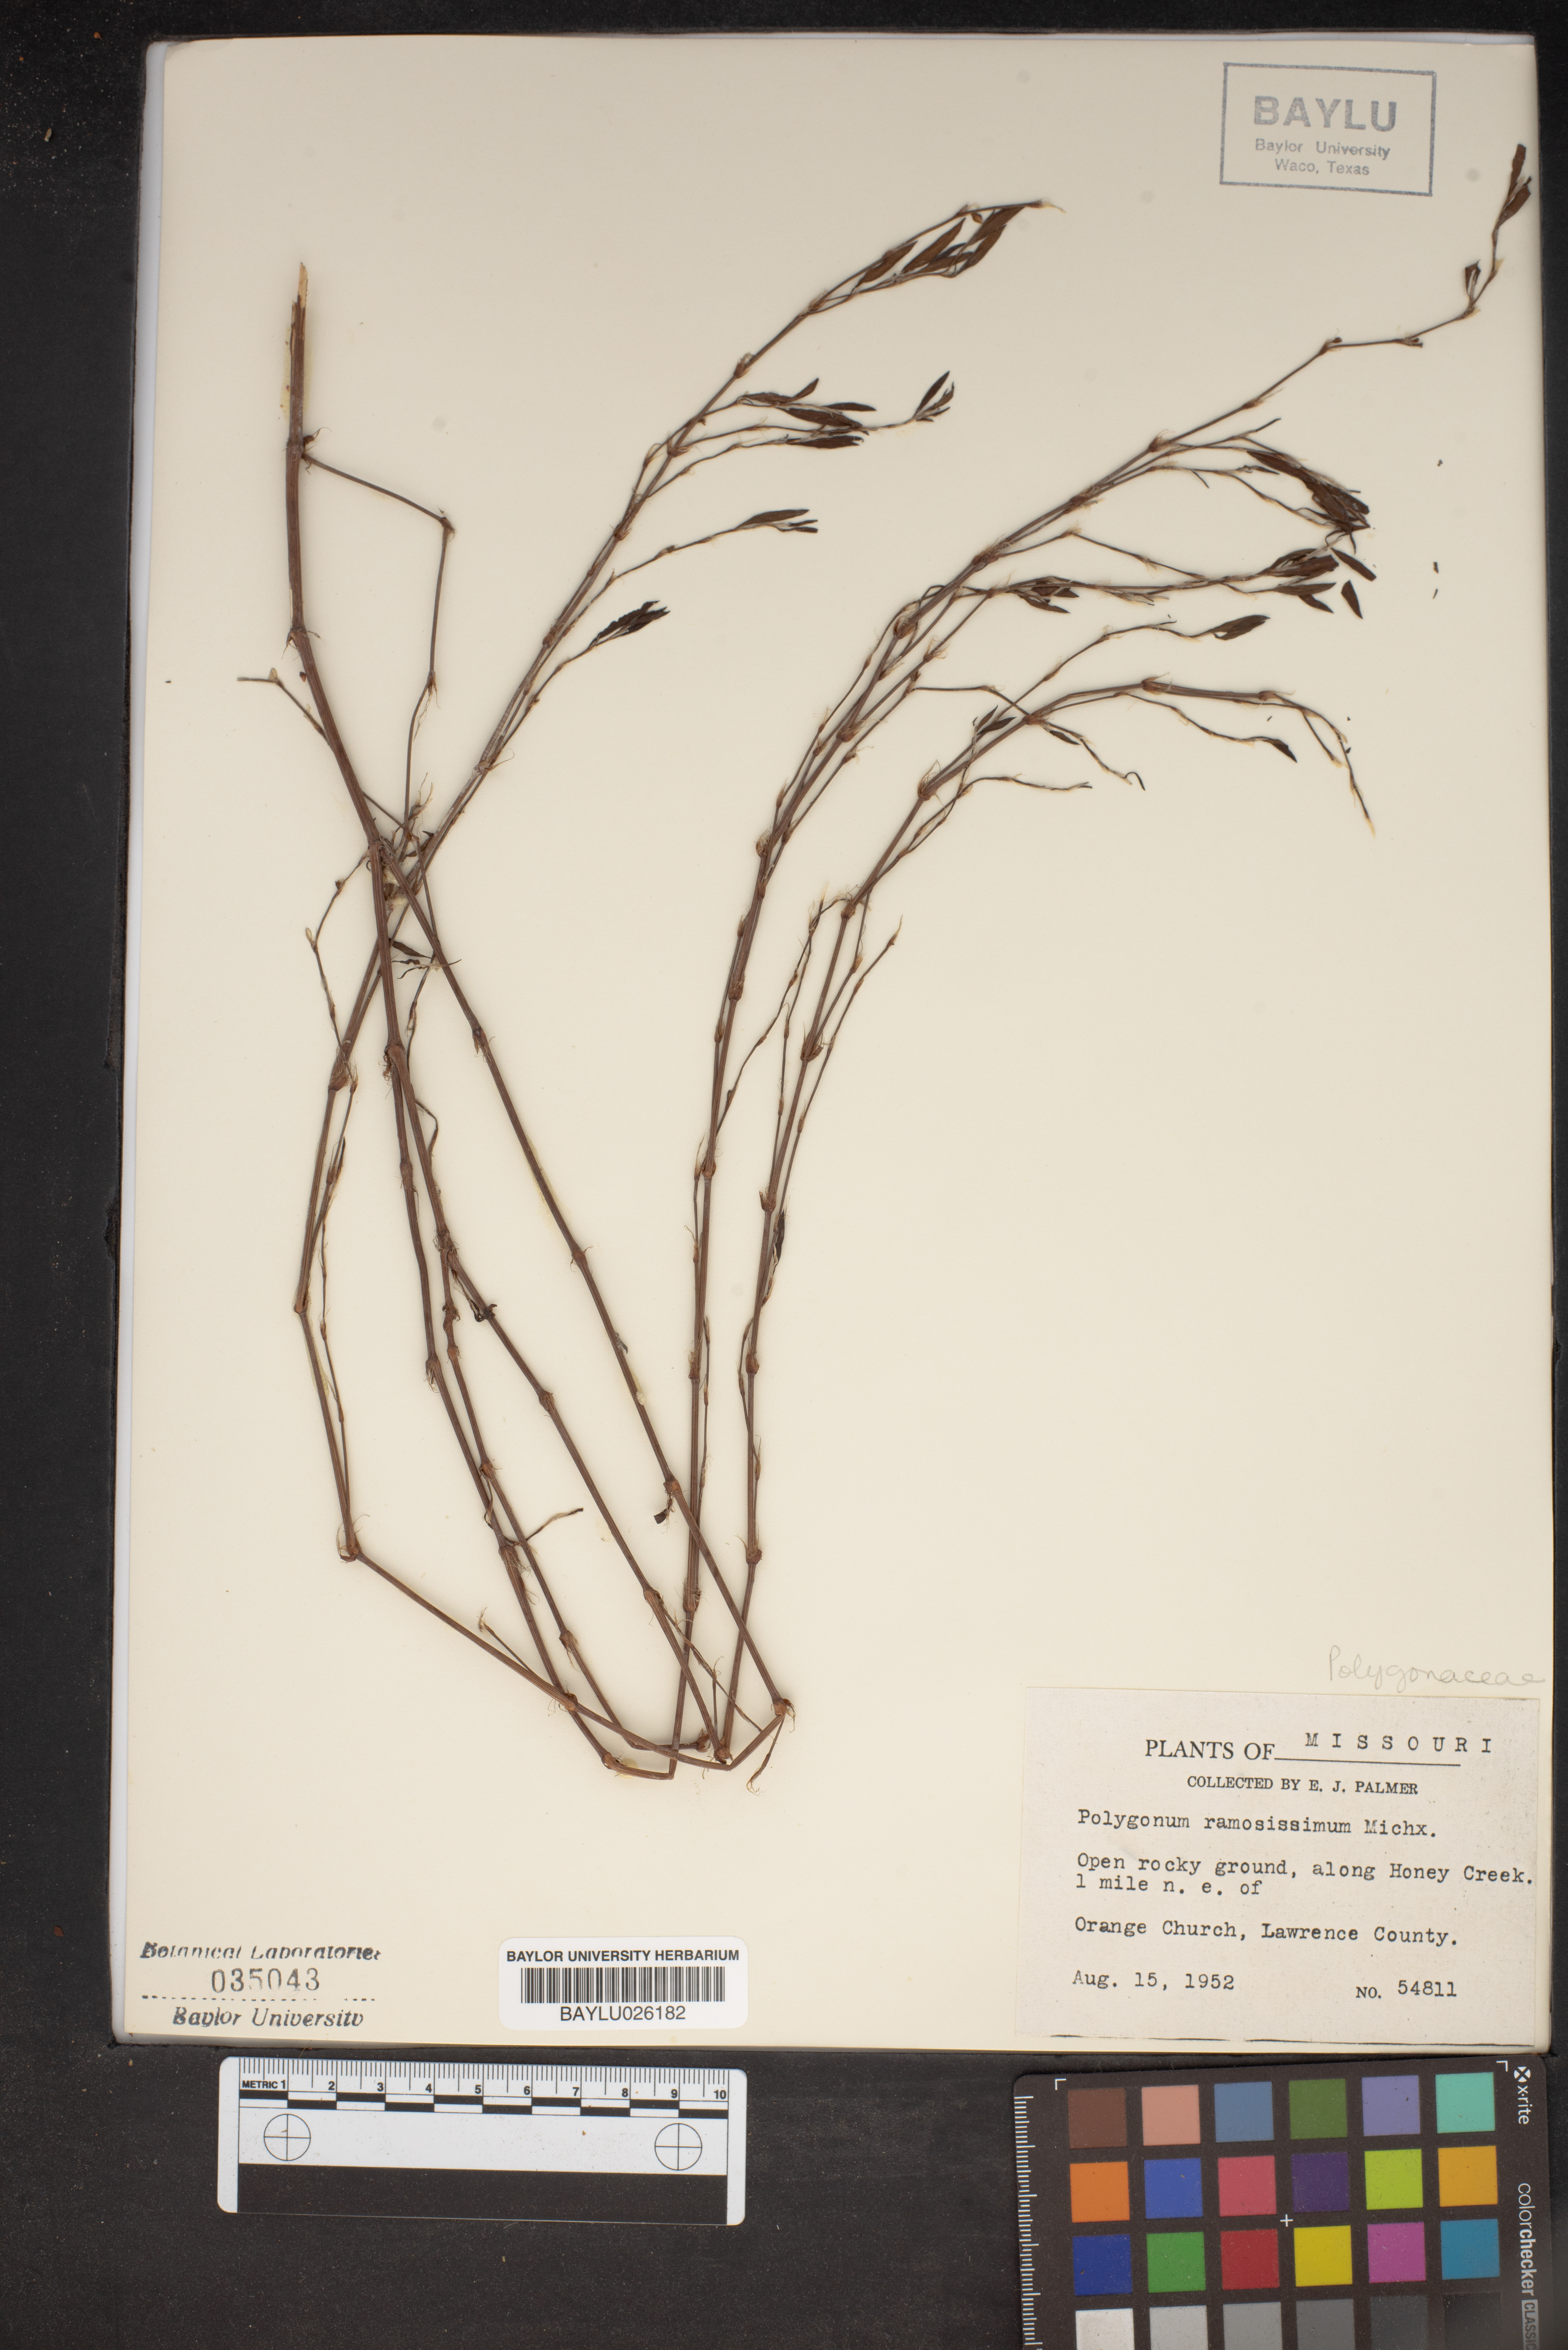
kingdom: Plantae
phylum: Tracheophyta
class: Magnoliopsida
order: Caryophyllales
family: Polygonaceae
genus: Polygonum
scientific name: Polygonum ramosissimum
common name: Bushy knotweed
